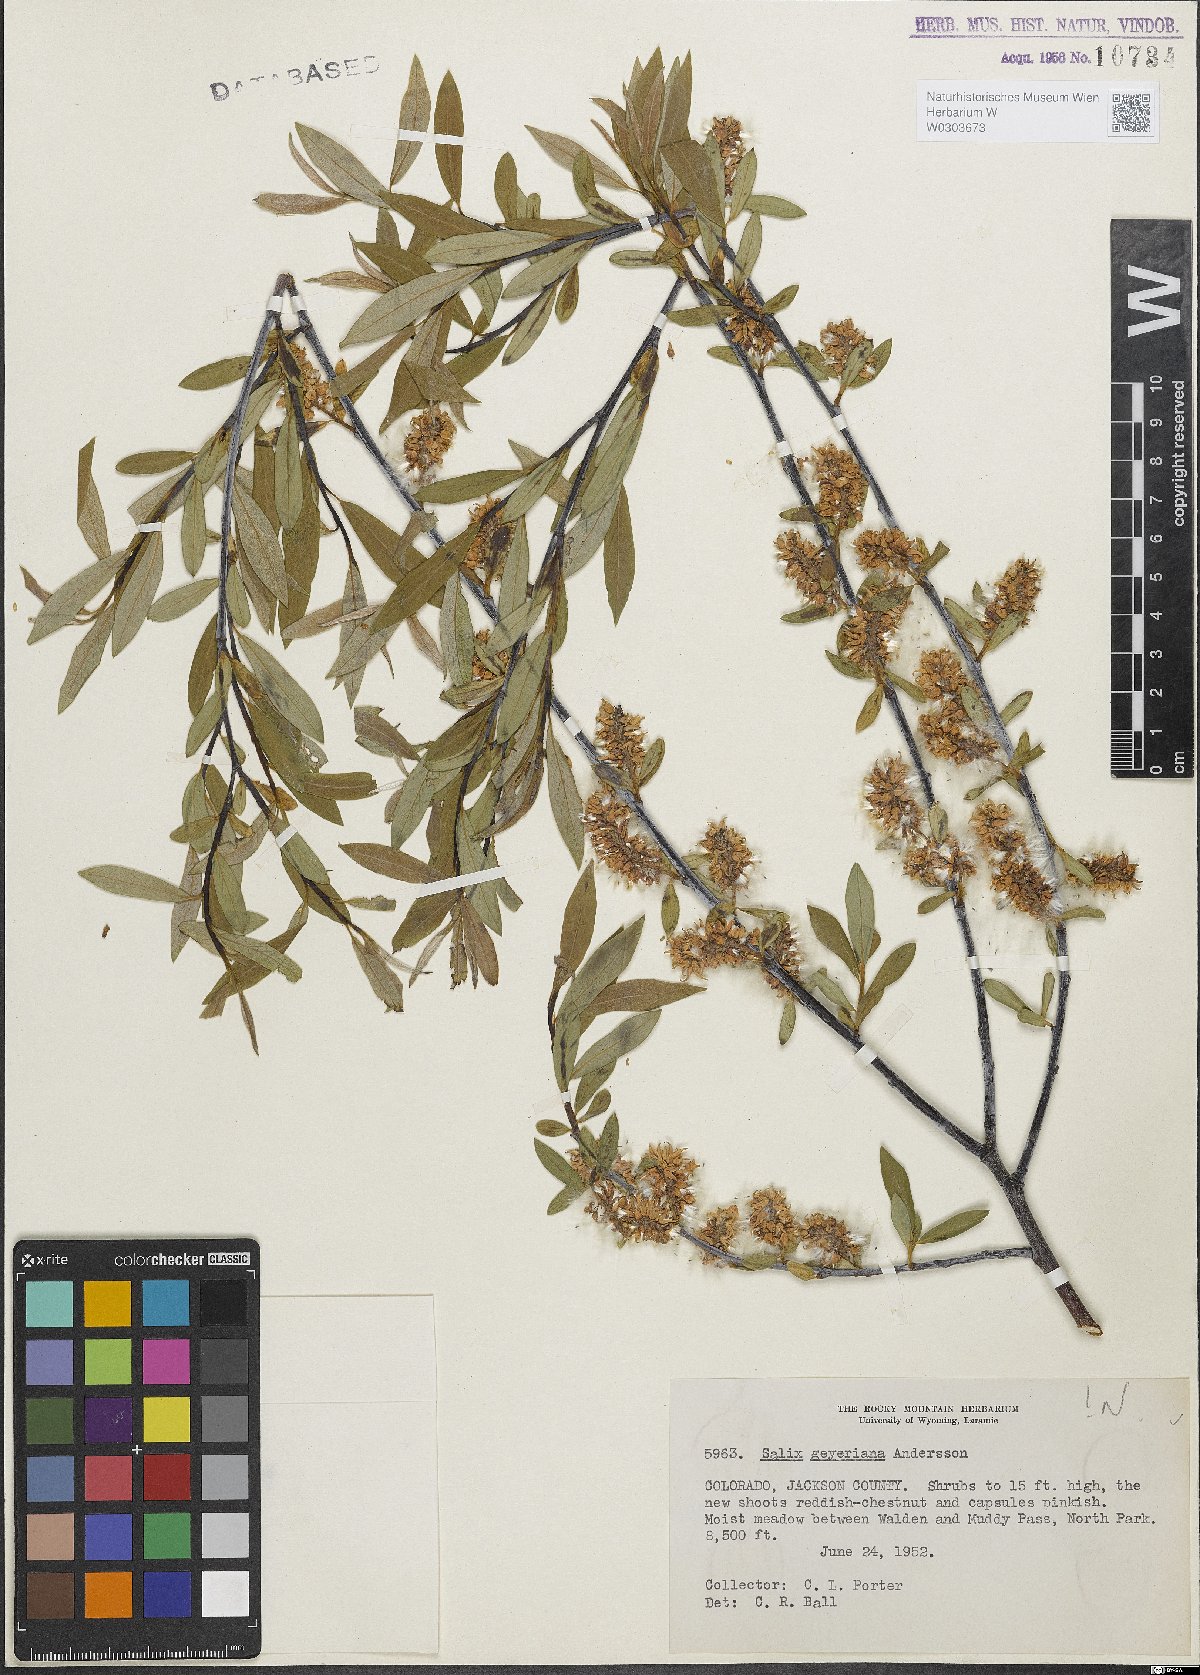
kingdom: Plantae
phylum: Tracheophyta
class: Magnoliopsida
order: Malpighiales
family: Salicaceae
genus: Salix
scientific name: Salix geyeriana
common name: Geyer's willow
